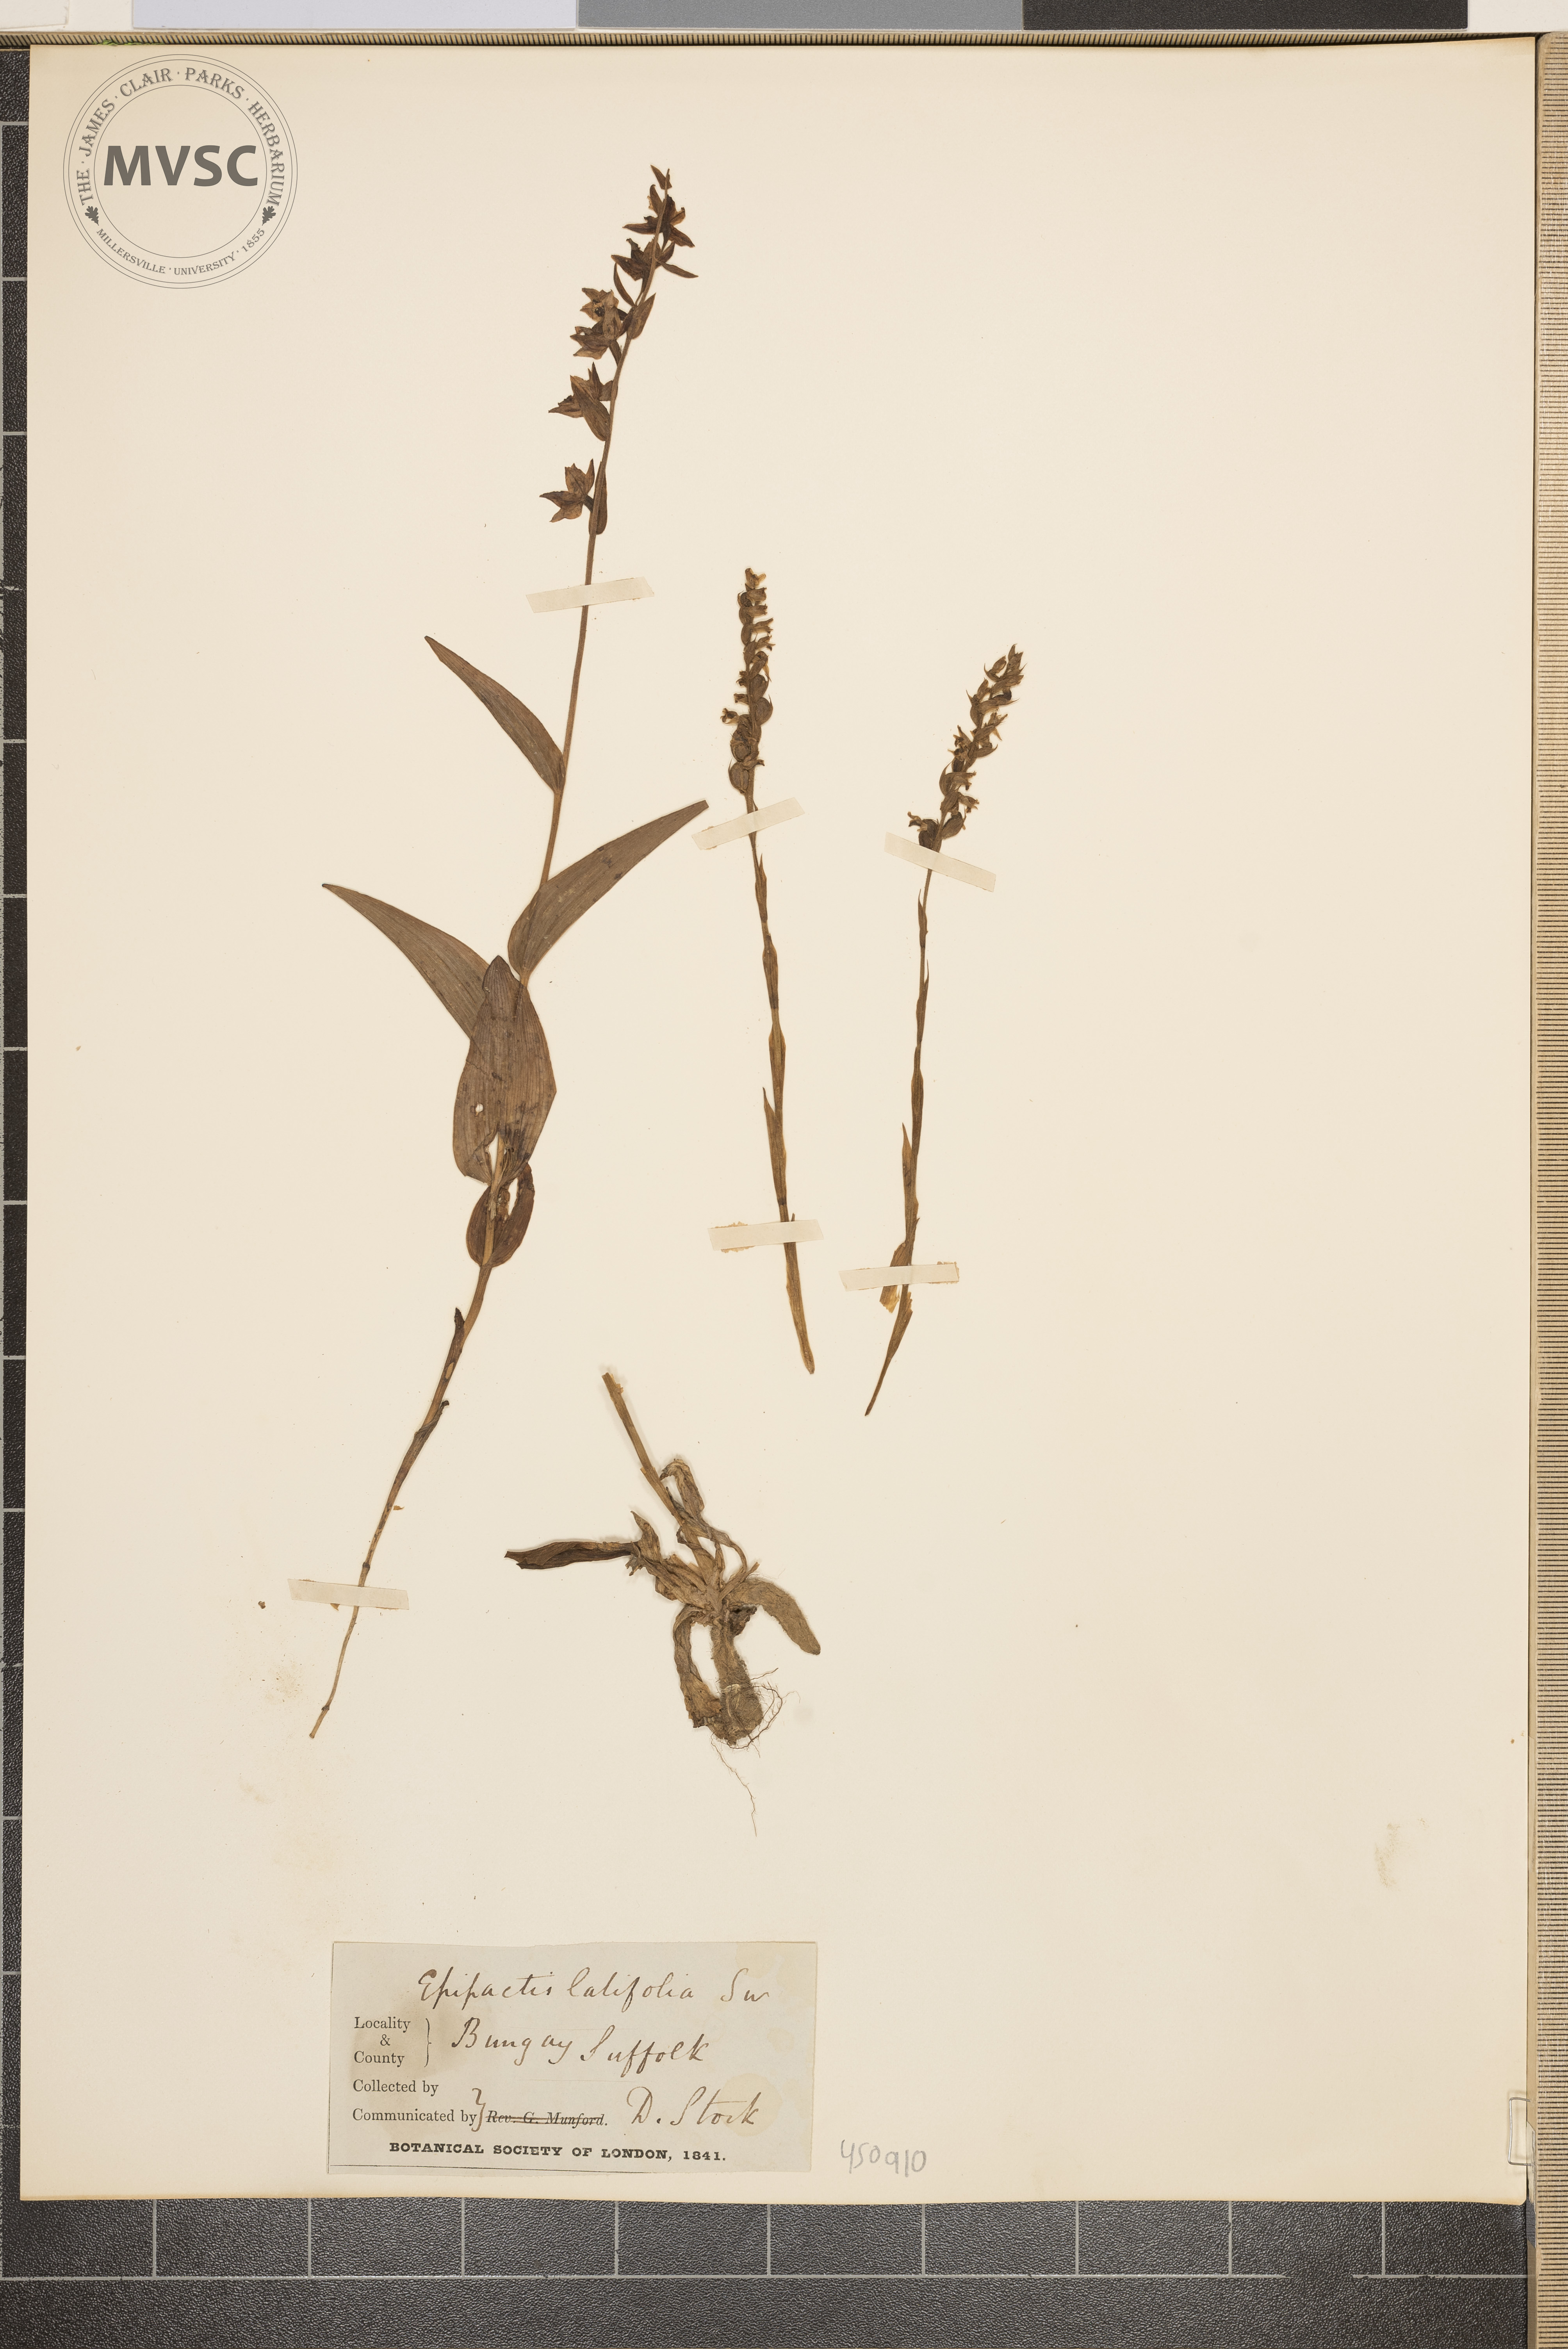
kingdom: Plantae
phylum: Tracheophyta
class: Liliopsida
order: Asparagales
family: Orchidaceae
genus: Epipactis
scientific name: Epipactis atrorubens
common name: Dark-red helleborine
